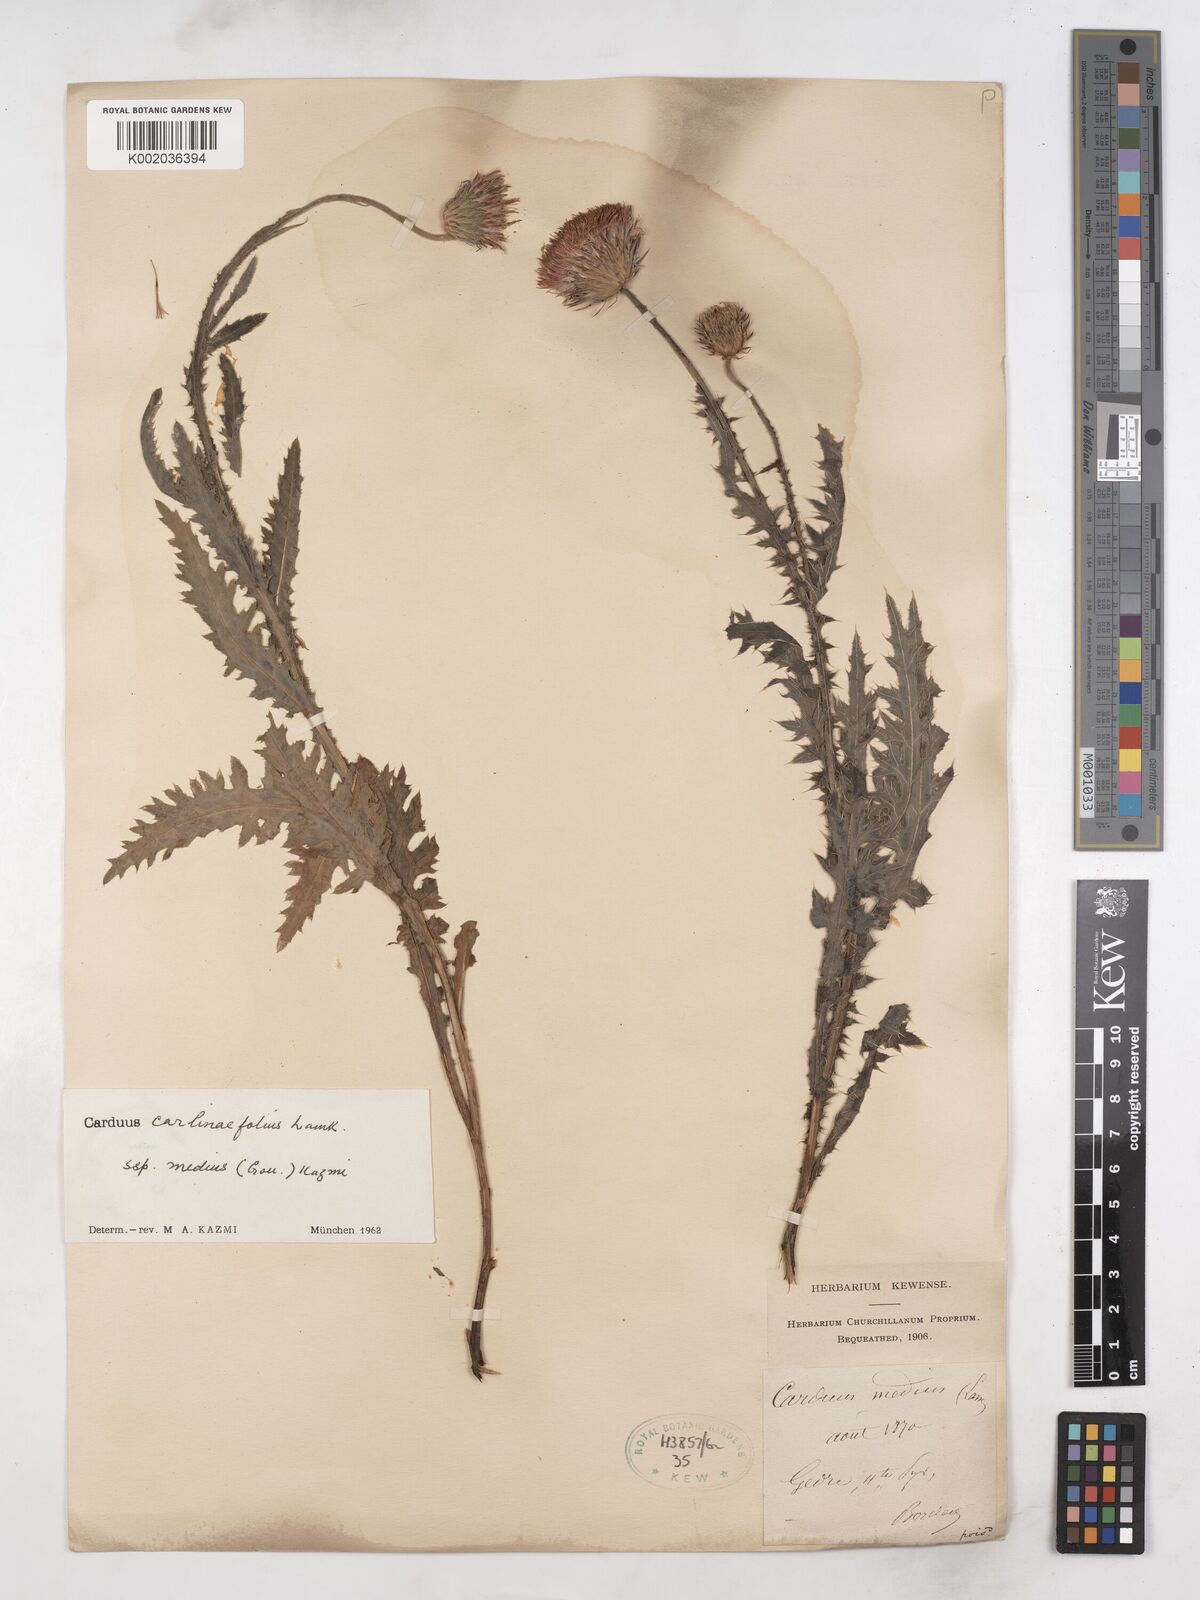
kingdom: Plantae
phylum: Tracheophyta
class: Magnoliopsida
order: Asterales
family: Asteraceae
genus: Carduus
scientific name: Carduus defloratus
